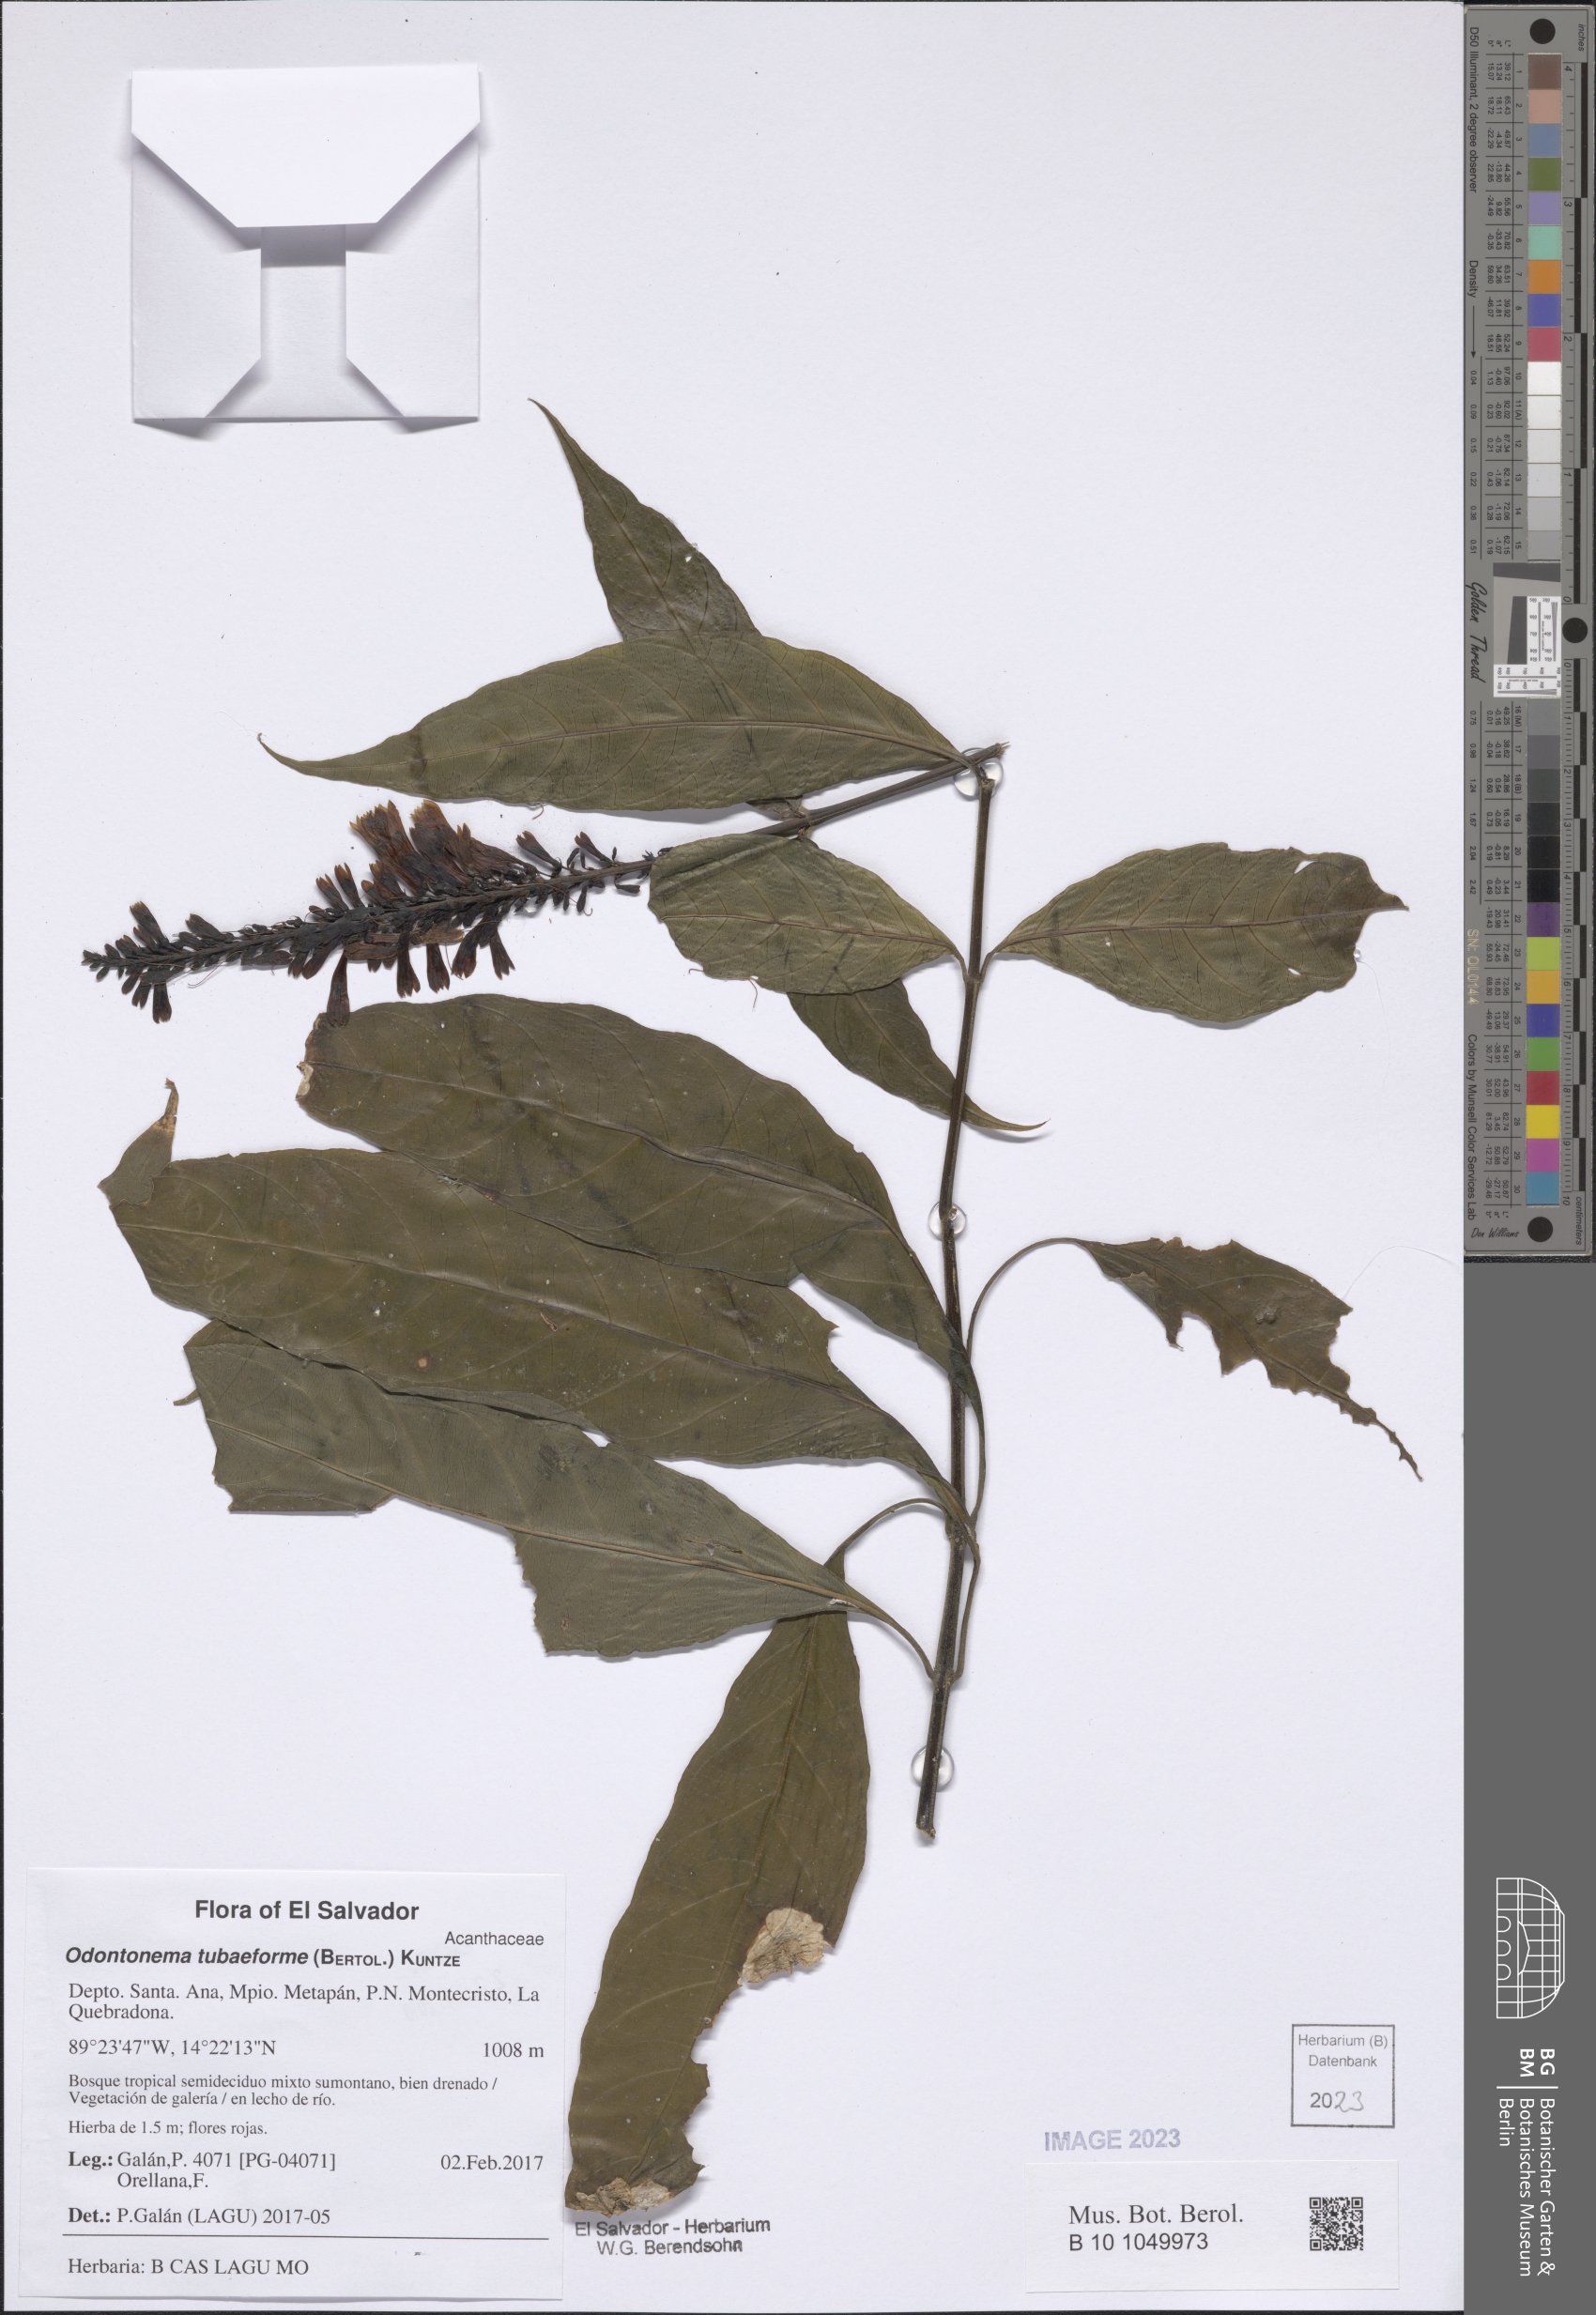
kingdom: Plantae
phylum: Tracheophyta
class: Magnoliopsida
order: Lamiales
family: Acanthaceae
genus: Odontonema
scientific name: Odontonema tubaeforme
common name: Firespike
